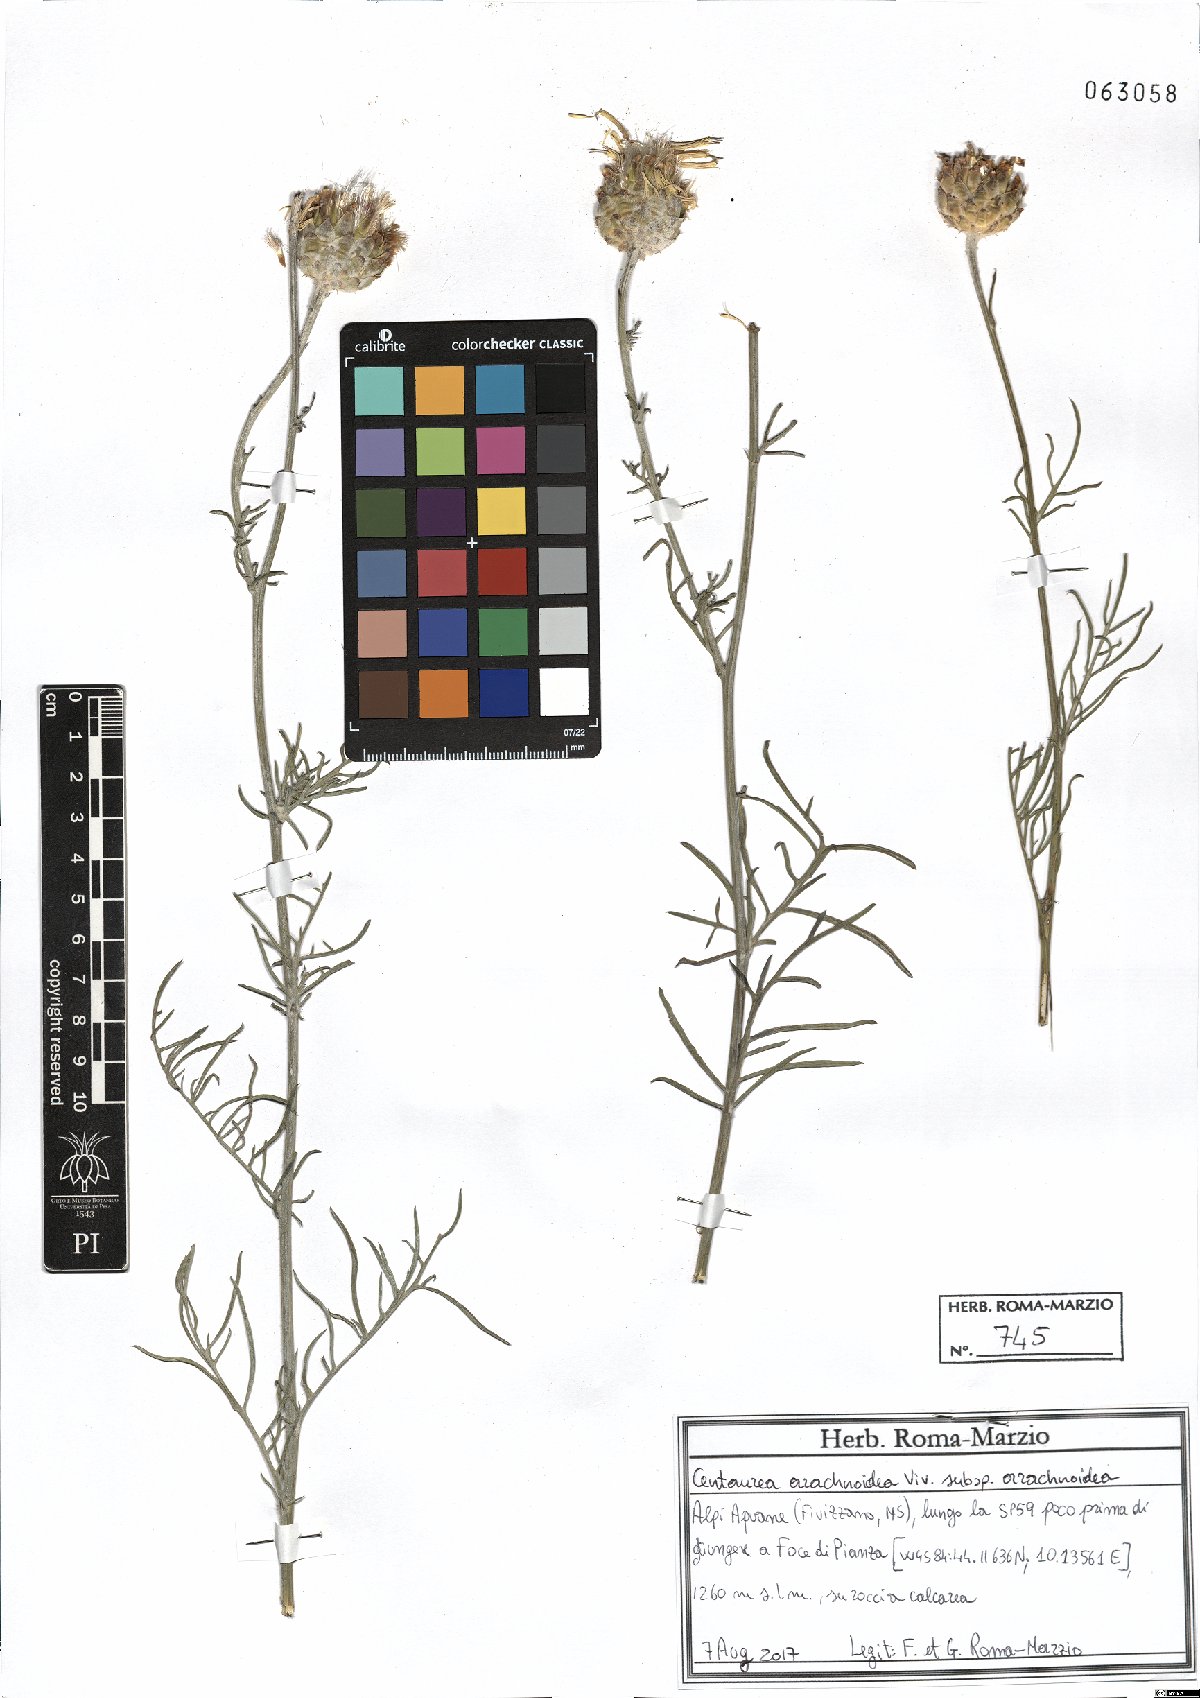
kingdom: Plantae
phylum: Tracheophyta
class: Magnoliopsida
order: Asterales
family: Asteraceae
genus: Centaurea
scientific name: Centaurea arachnoidea
